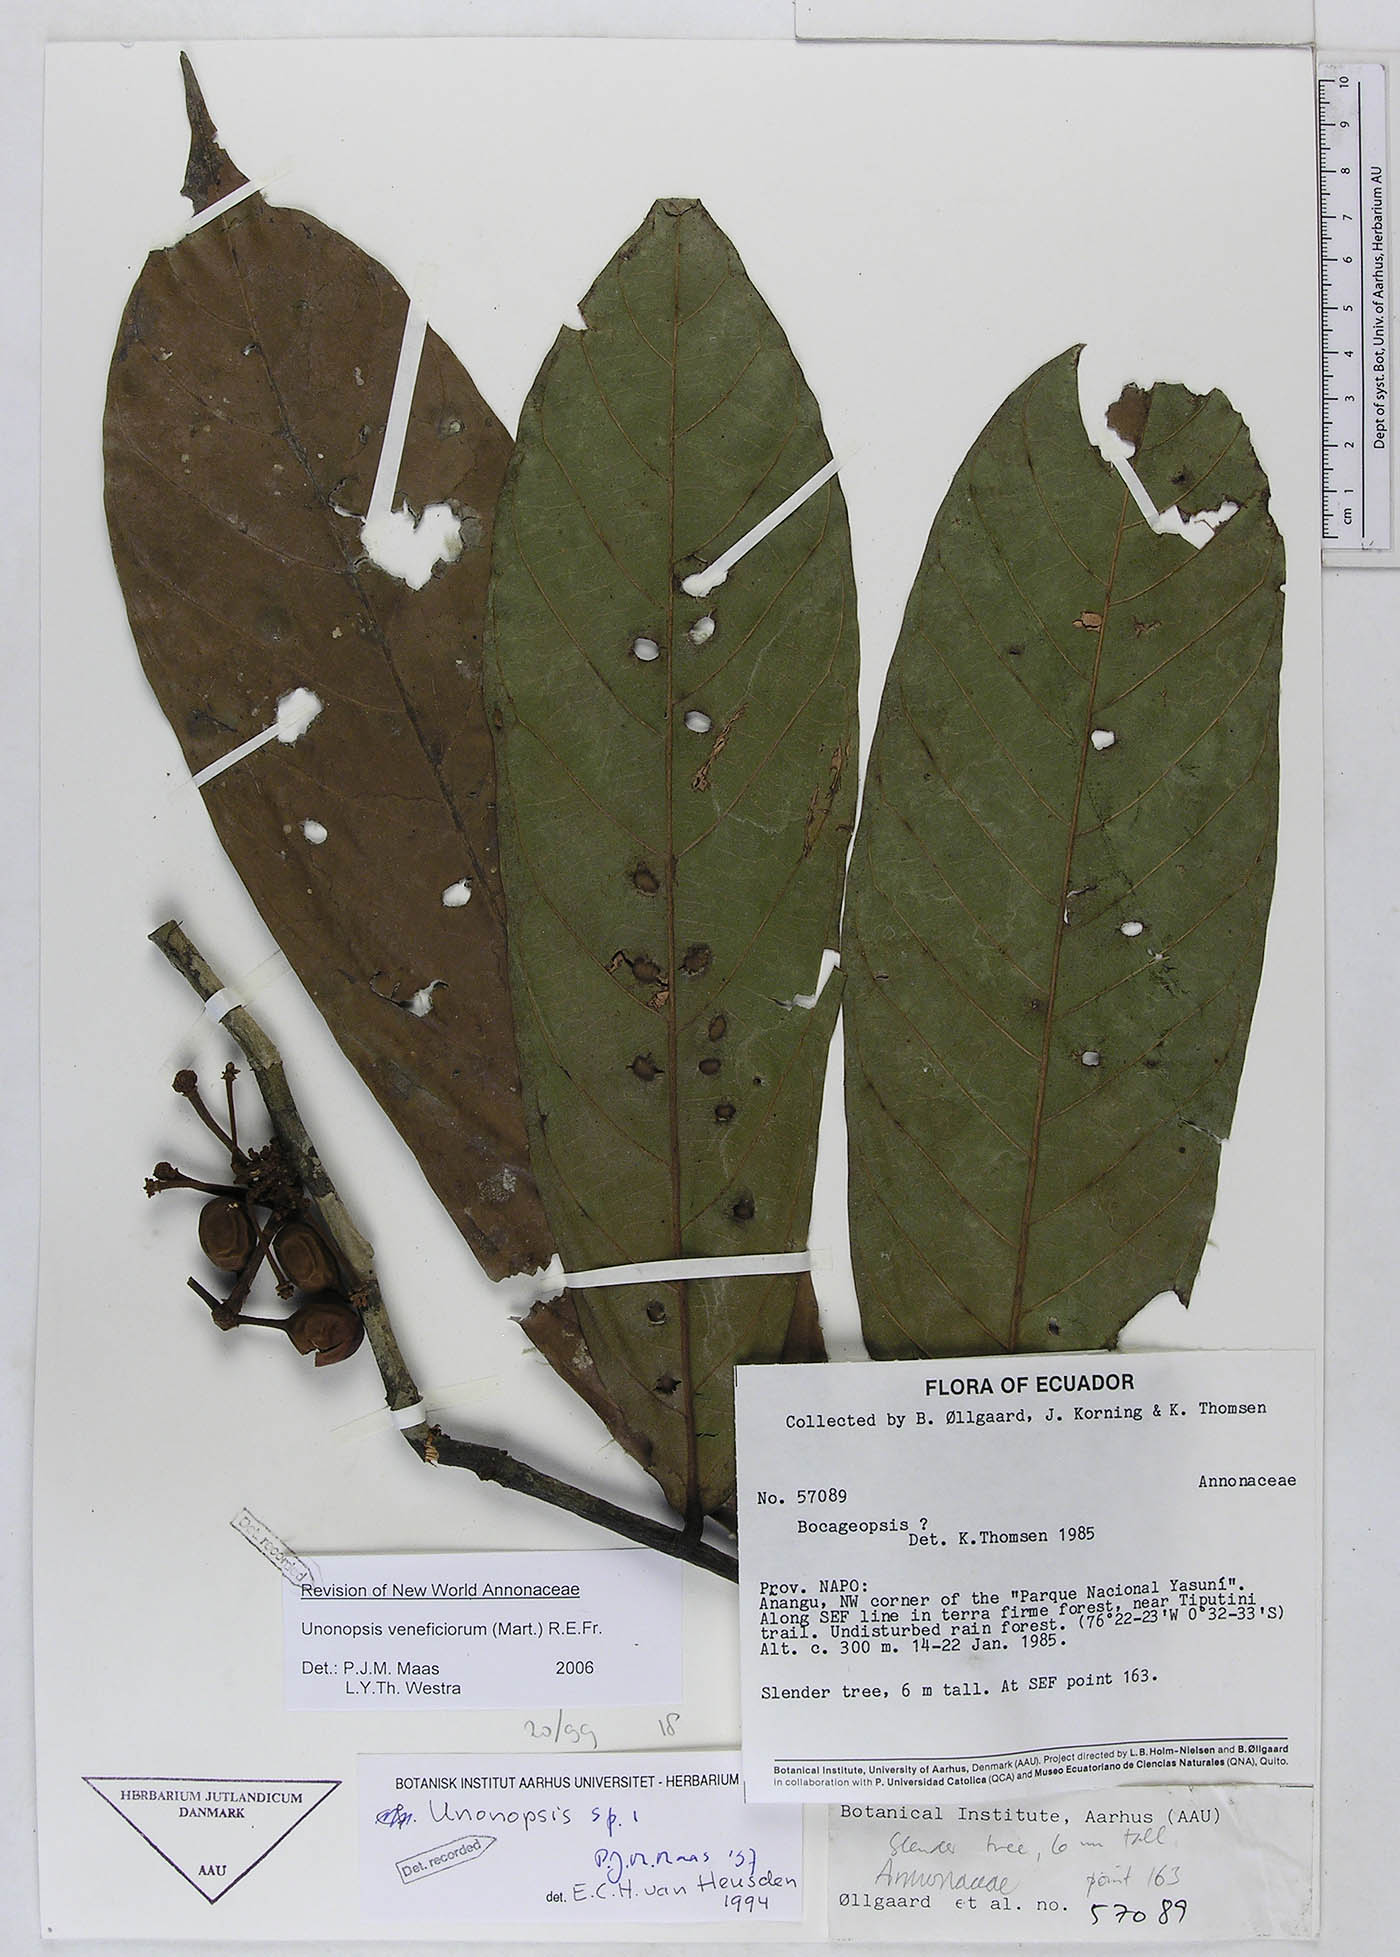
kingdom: Plantae
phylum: Tracheophyta
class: Magnoliopsida
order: Magnoliales
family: Annonaceae
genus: Unonopsis
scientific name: Unonopsis veneficiorum
